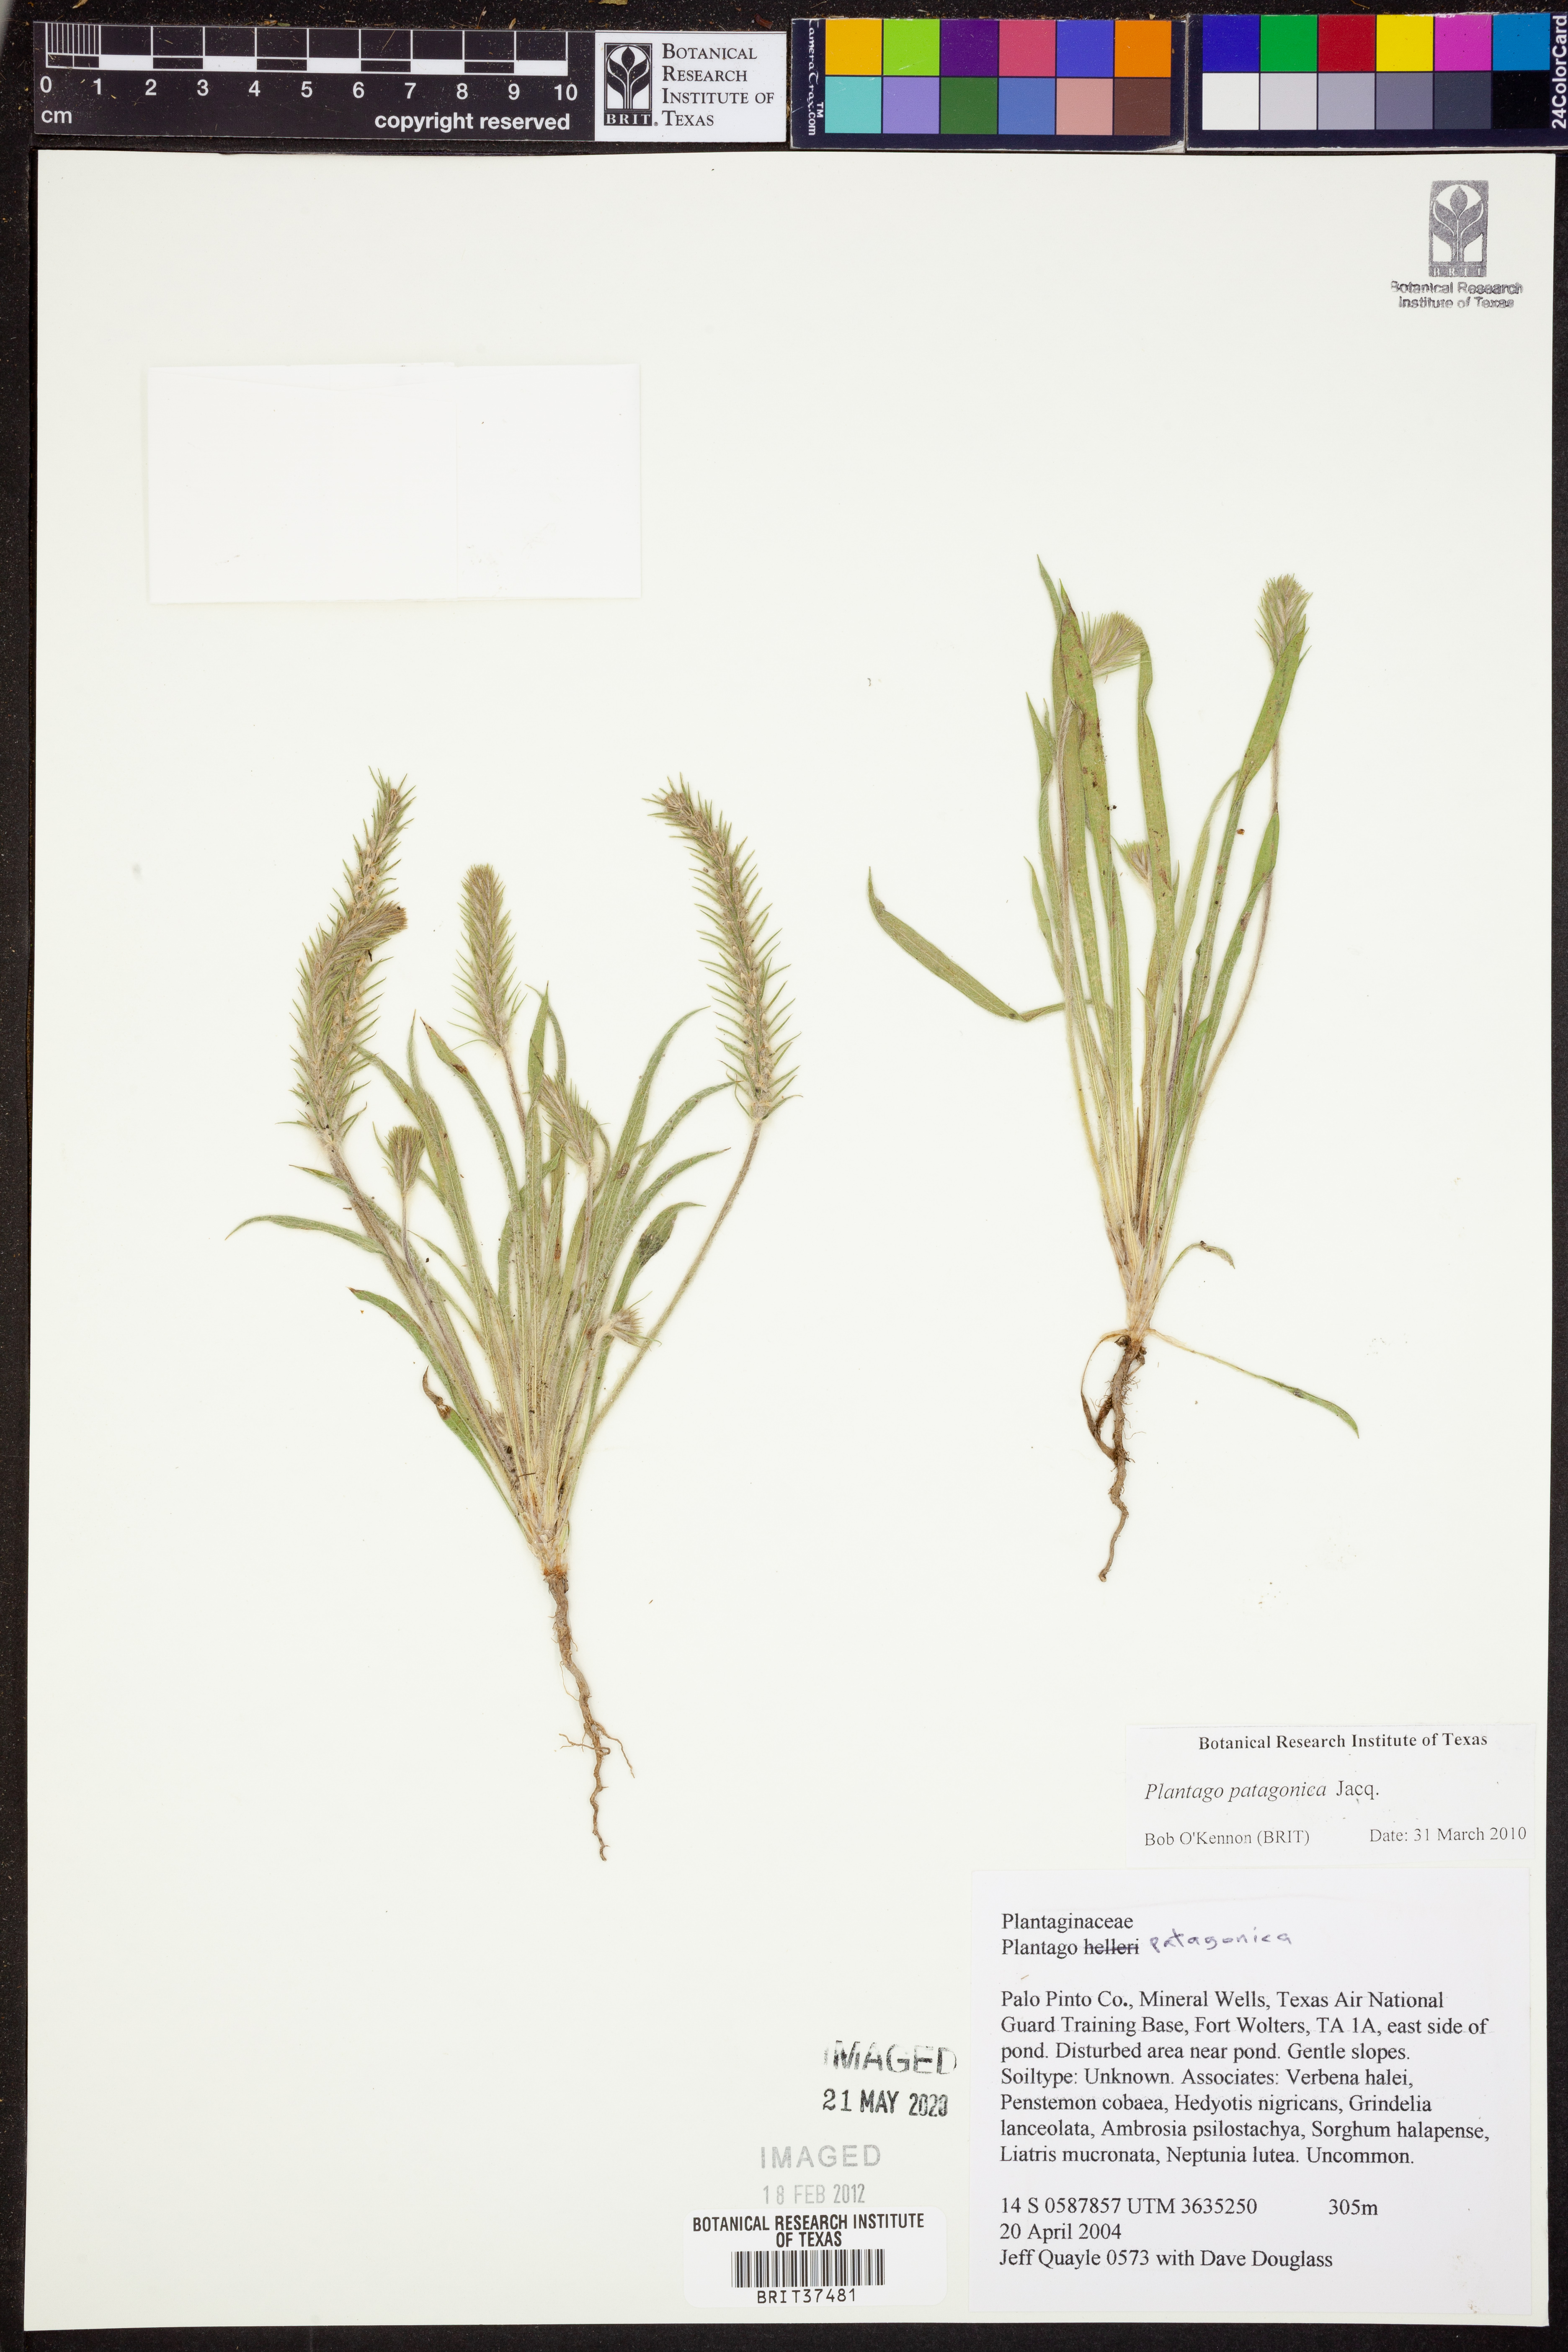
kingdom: Plantae
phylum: Tracheophyta
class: Magnoliopsida
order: Lamiales
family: Plantaginaceae
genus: Plantago
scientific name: Plantago patagonica
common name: Patagonia indian-wheat
